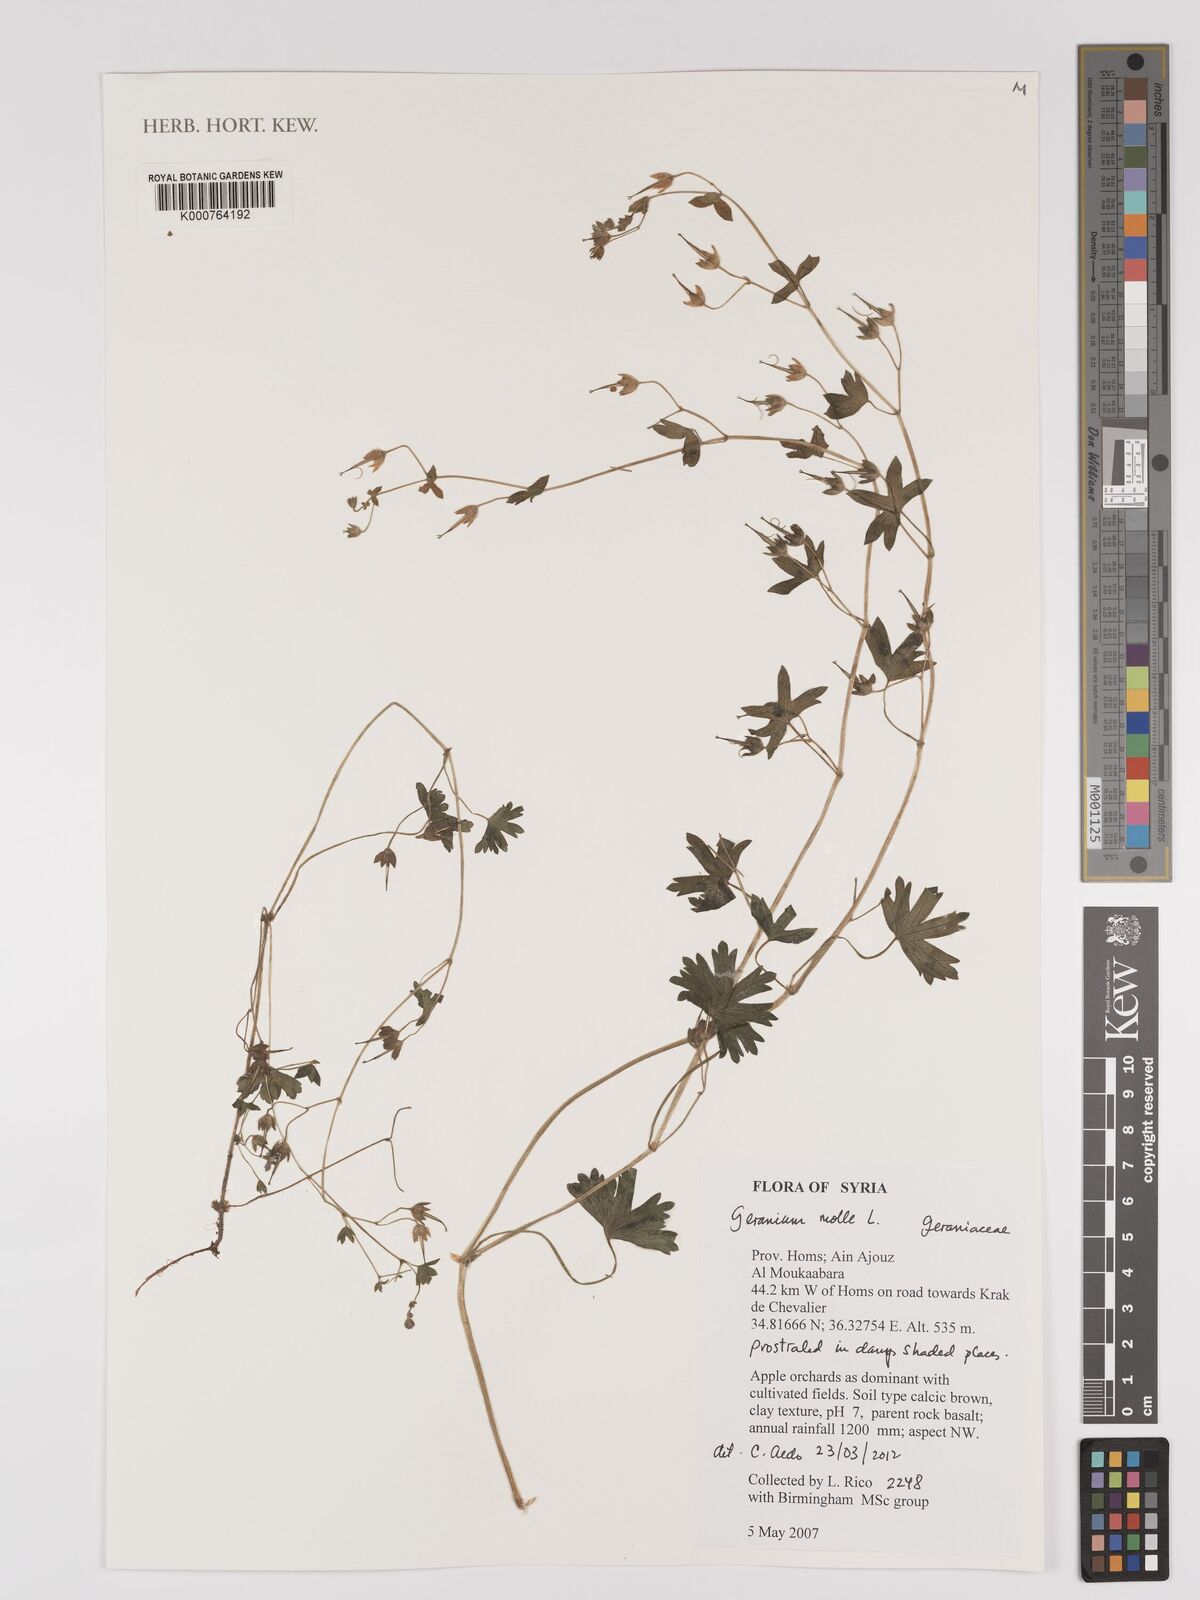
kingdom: Plantae
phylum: Tracheophyta
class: Magnoliopsida
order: Geraniales
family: Geraniaceae
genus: Geranium
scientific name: Geranium molle
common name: Dove's-foot crane's-bill
